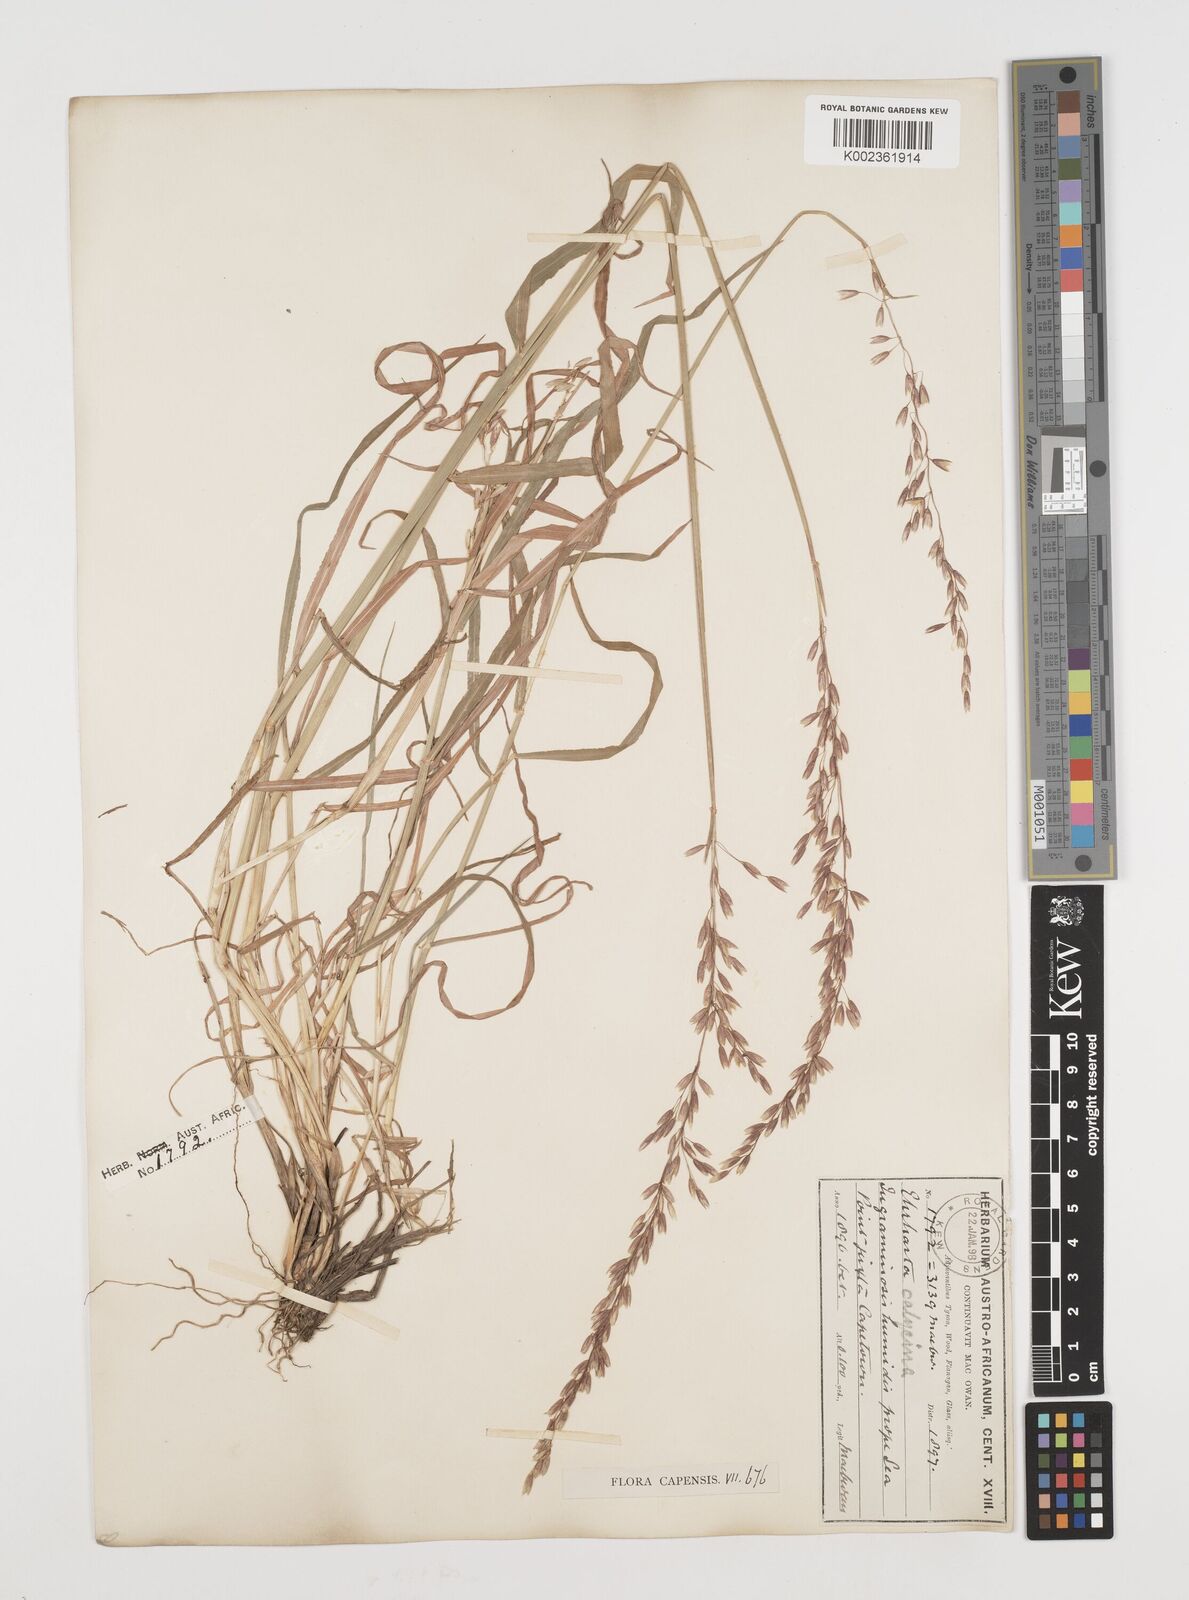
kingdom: Plantae
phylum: Tracheophyta
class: Liliopsida
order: Poales
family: Poaceae
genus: Ehrharta
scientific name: Ehrharta calycina
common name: Perennial veldtgrass
